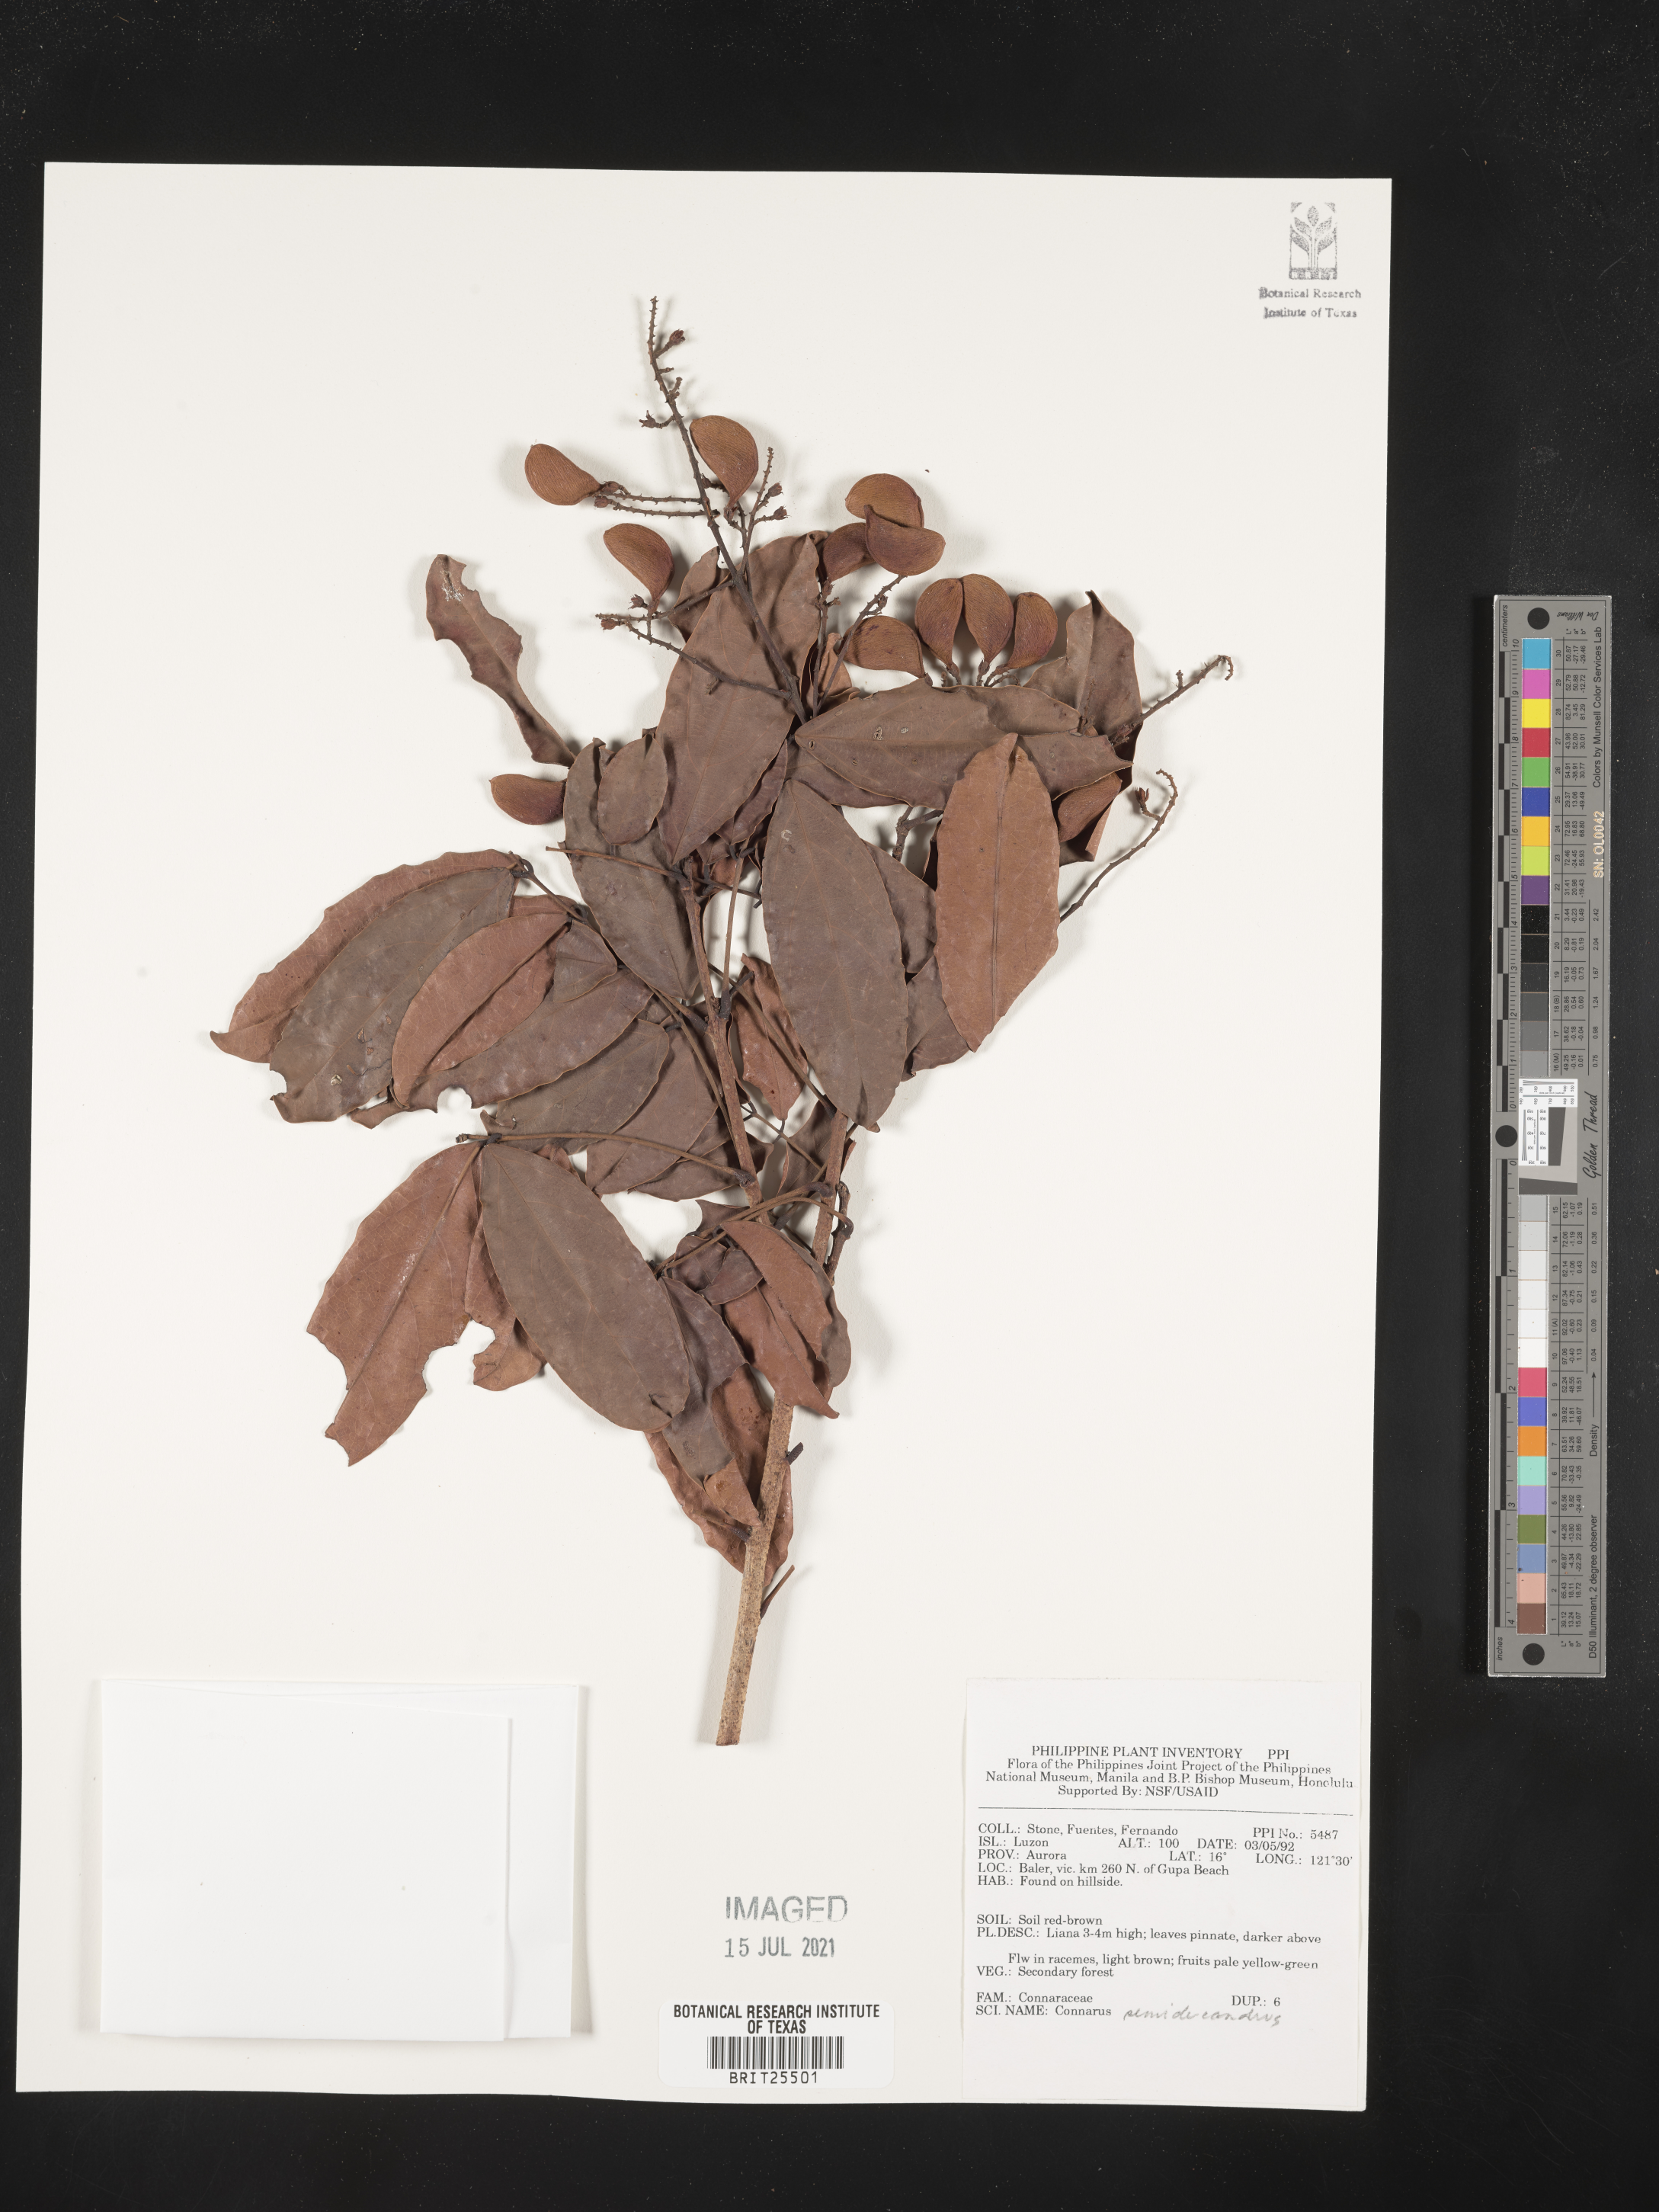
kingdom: Plantae
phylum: Tracheophyta
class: Magnoliopsida
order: Oxalidales
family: Connaraceae
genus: Connarus
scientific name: Connarus semidecandrus
